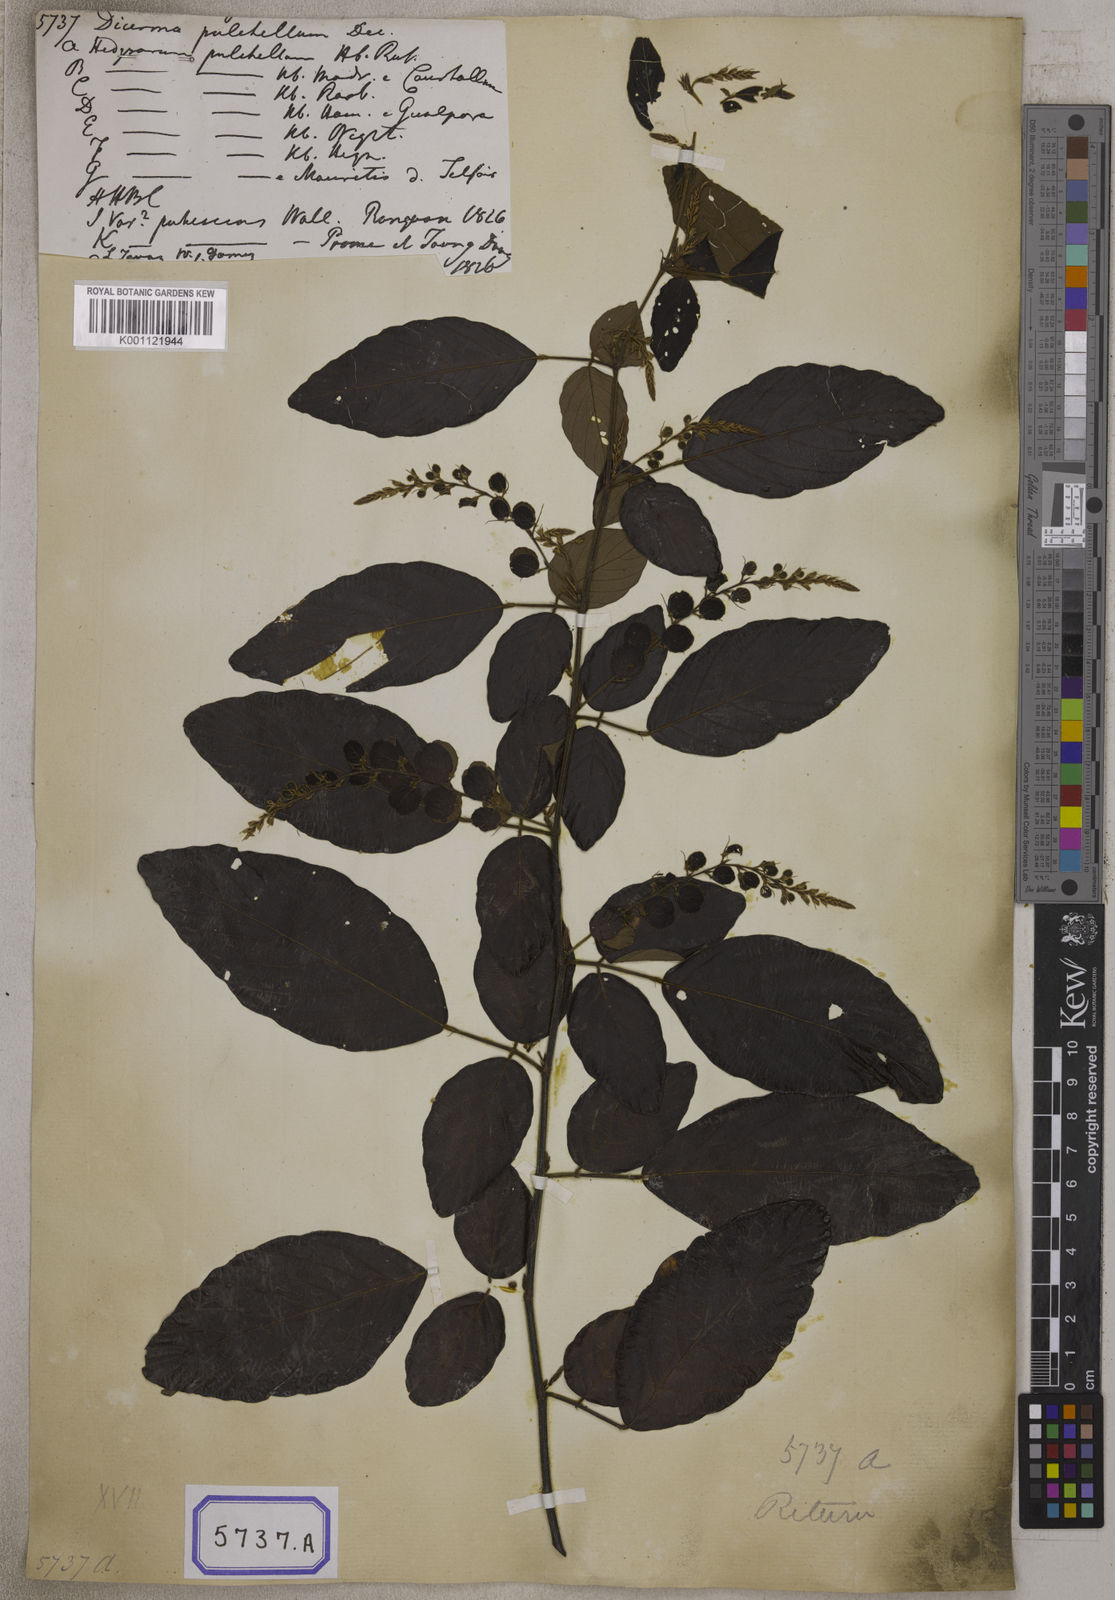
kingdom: Plantae
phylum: Tracheophyta
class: Magnoliopsida
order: Fabales
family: Fabaceae
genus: Phyllodium
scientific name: Phyllodium pulchellum
